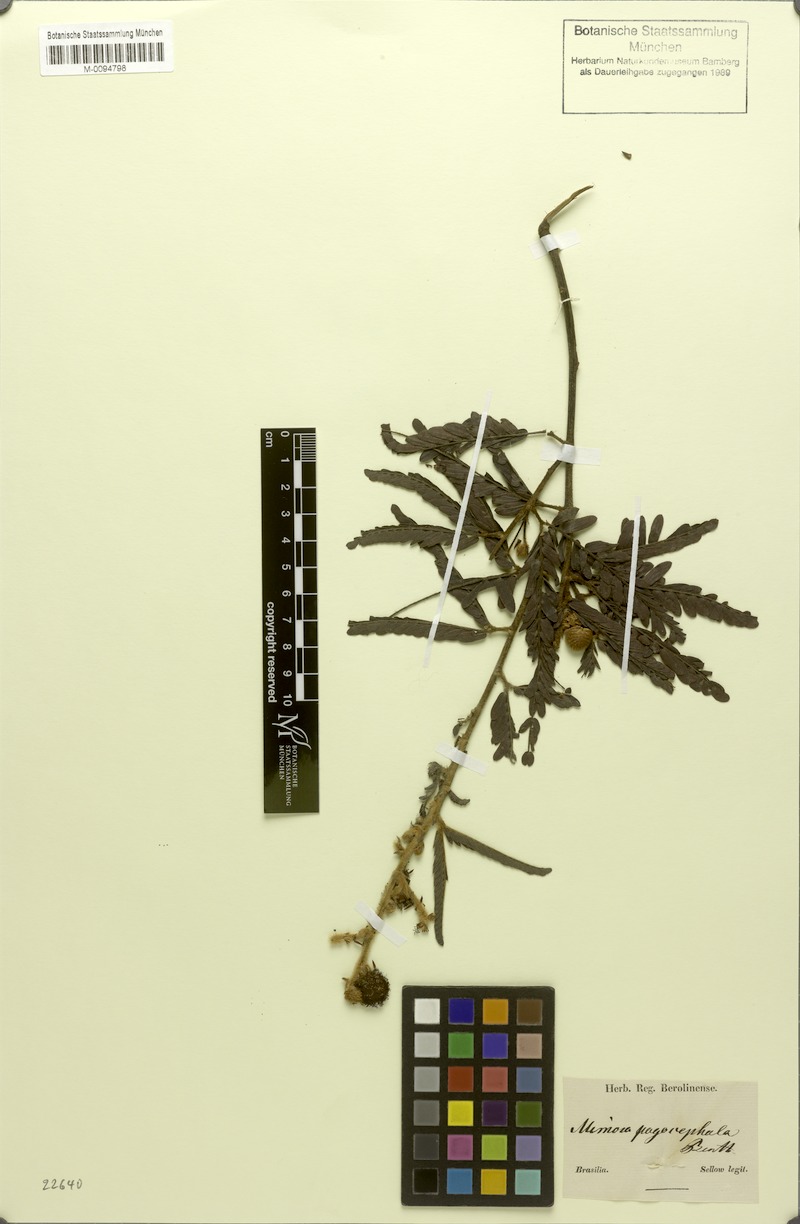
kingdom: Plantae
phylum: Tracheophyta
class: Magnoliopsida
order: Fabales
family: Fabaceae
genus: Mimosa
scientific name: Mimosa pogocephala
